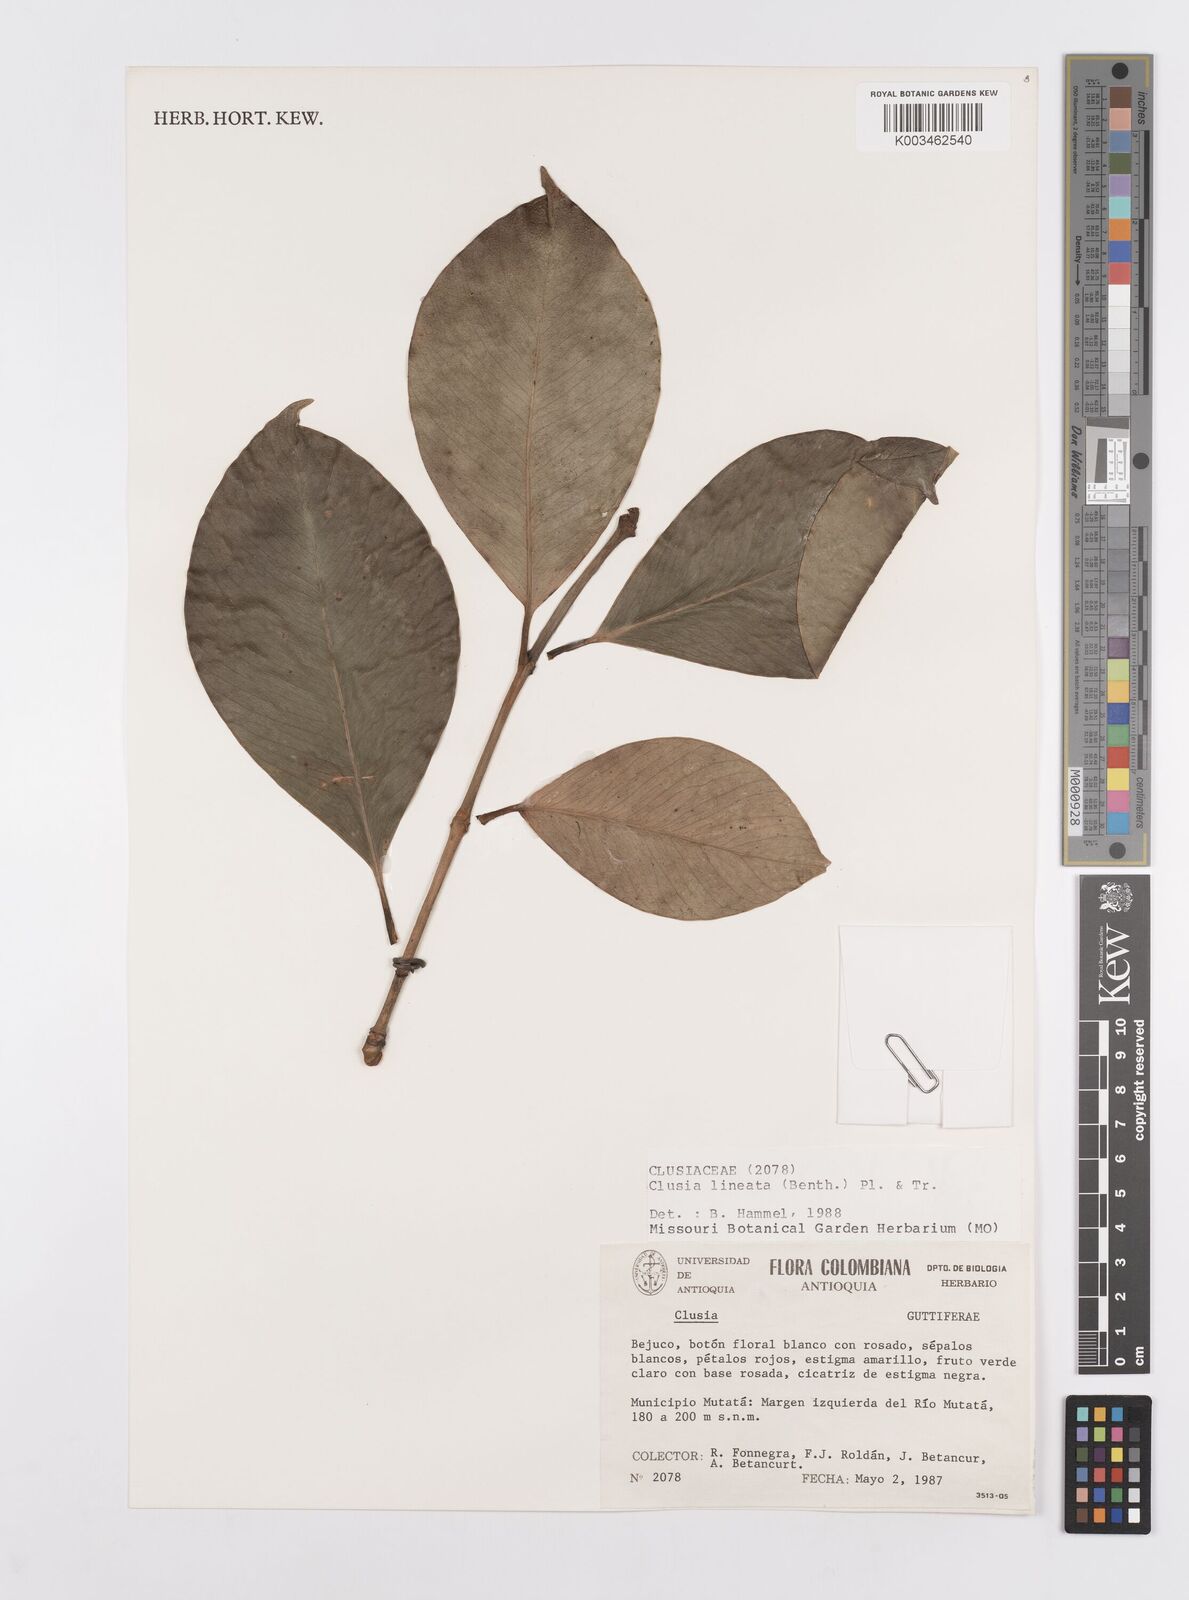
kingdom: Plantae
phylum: Tracheophyta
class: Magnoliopsida
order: Malpighiales
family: Clusiaceae
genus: Clusia
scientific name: Clusia lineata
